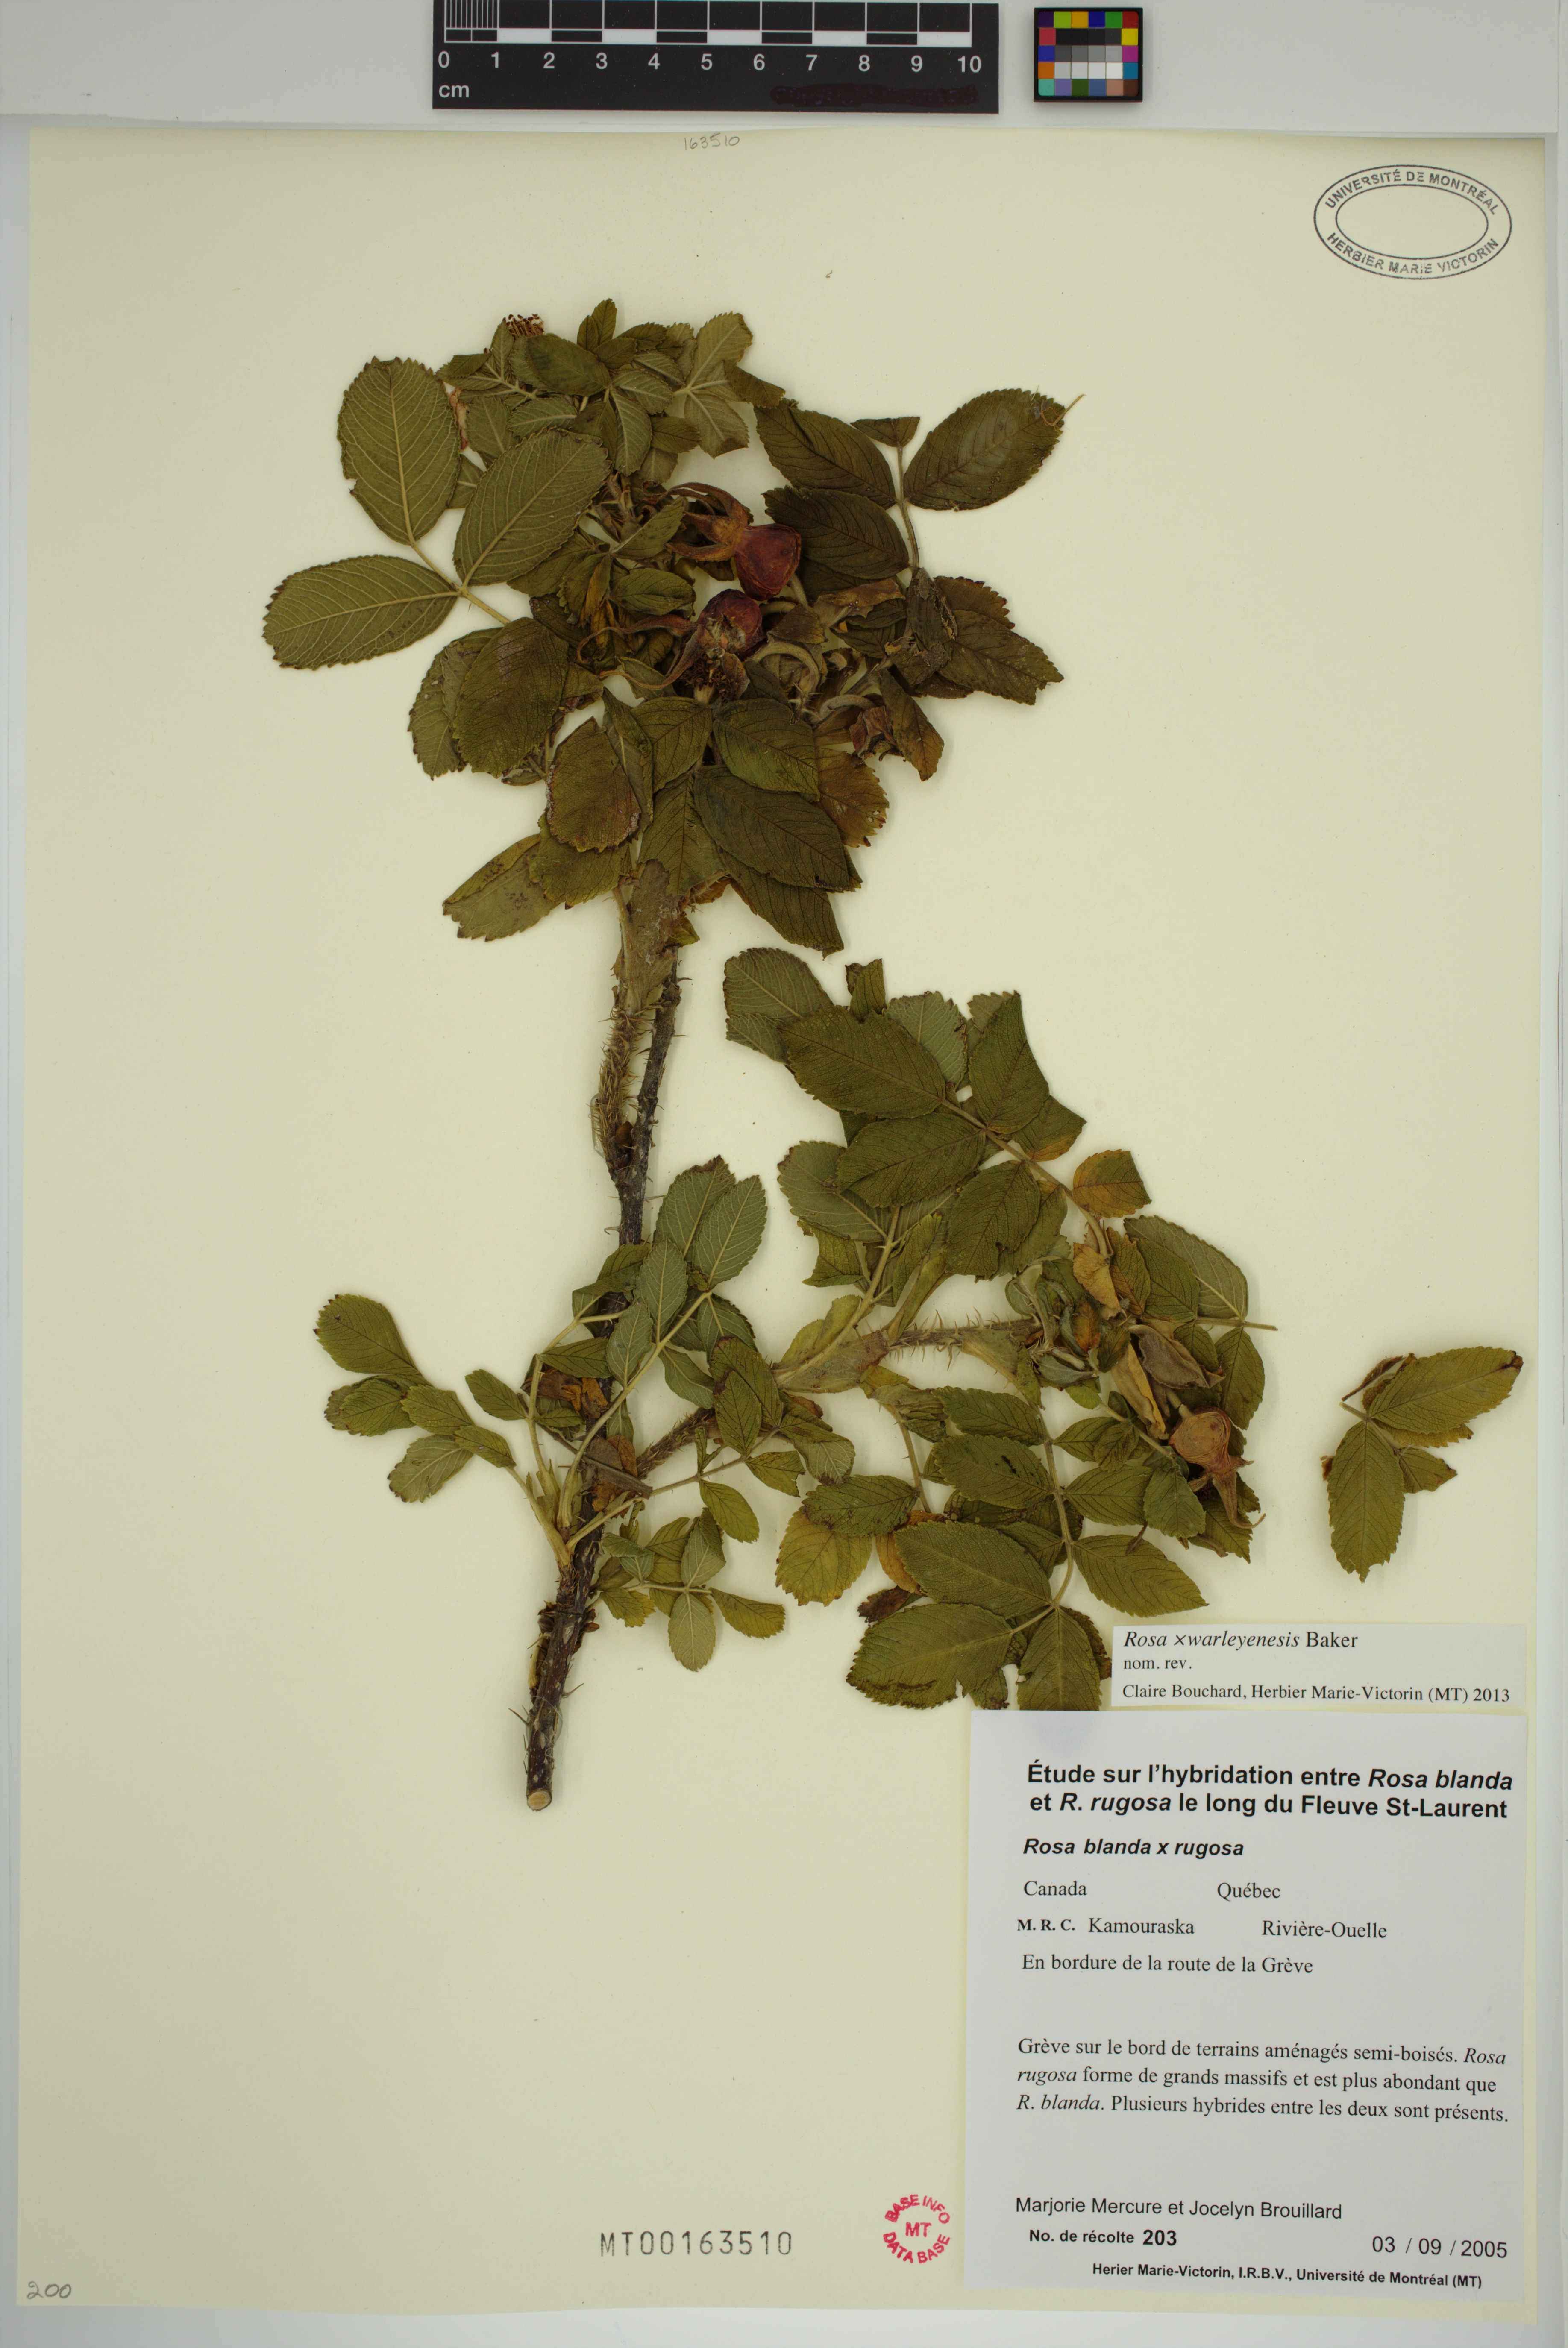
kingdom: Plantae
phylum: Tracheophyta
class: Magnoliopsida
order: Rosales
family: Rosaceae
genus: Rosa
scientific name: Rosa warleyensis
